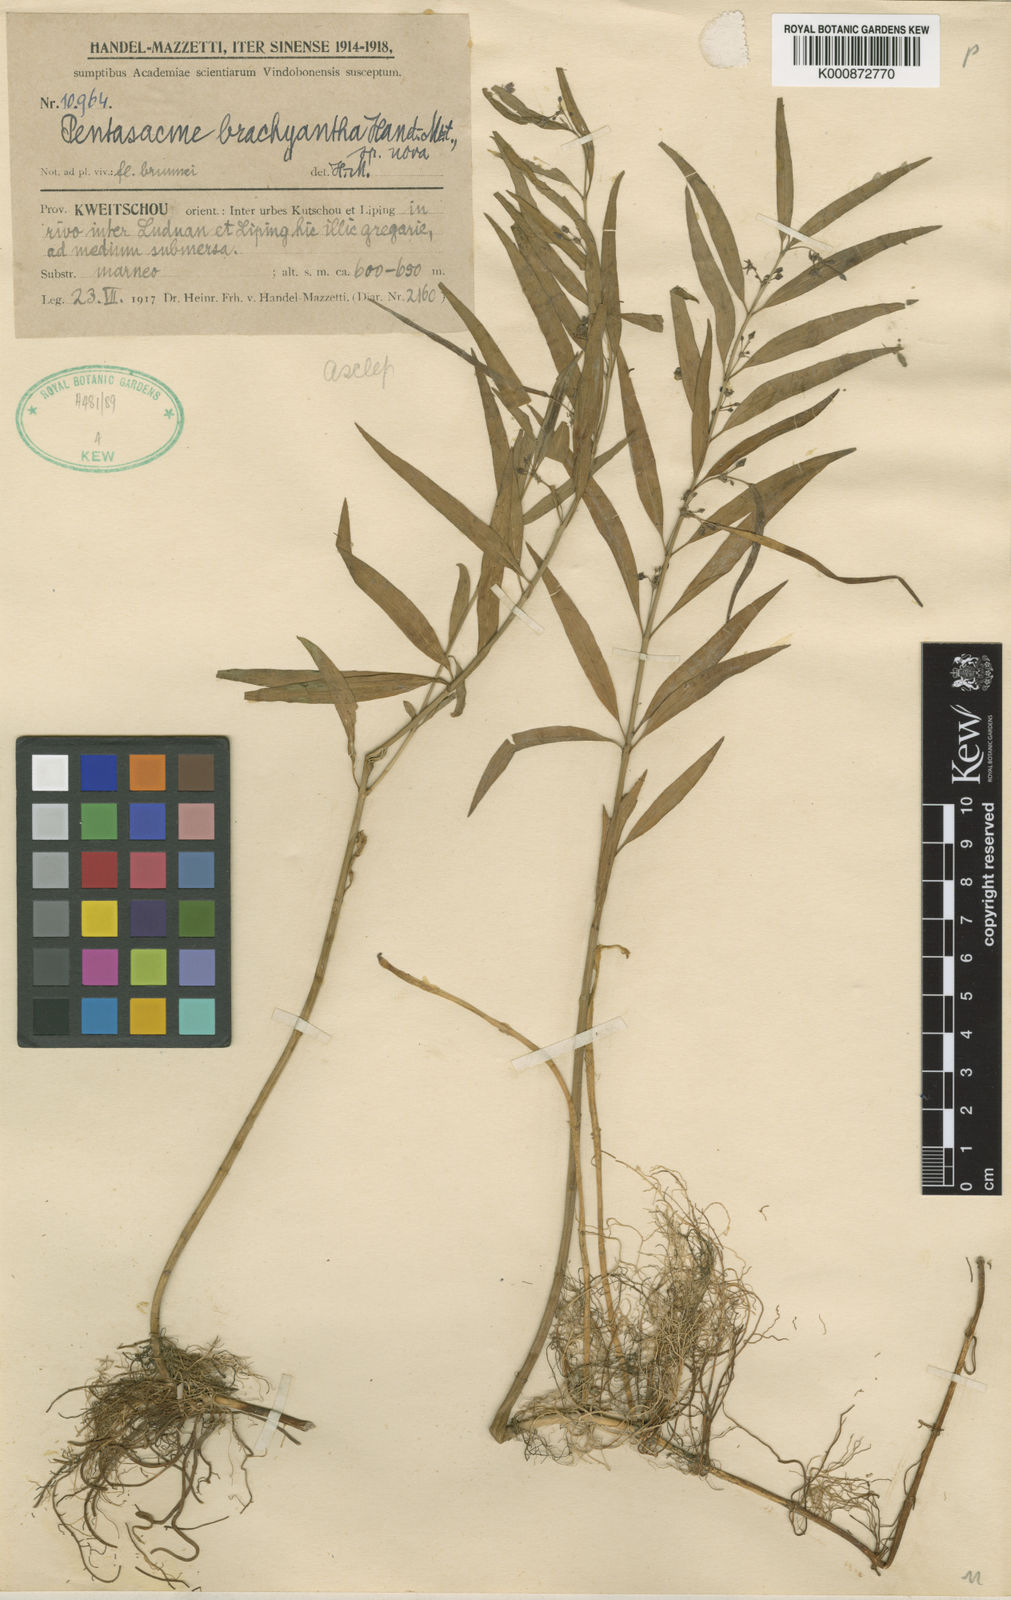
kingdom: Plantae
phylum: Tracheophyta
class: Magnoliopsida
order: Gentianales
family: Apocynaceae
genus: Vincetoxicum
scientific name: Vincetoxicum stauntonii
